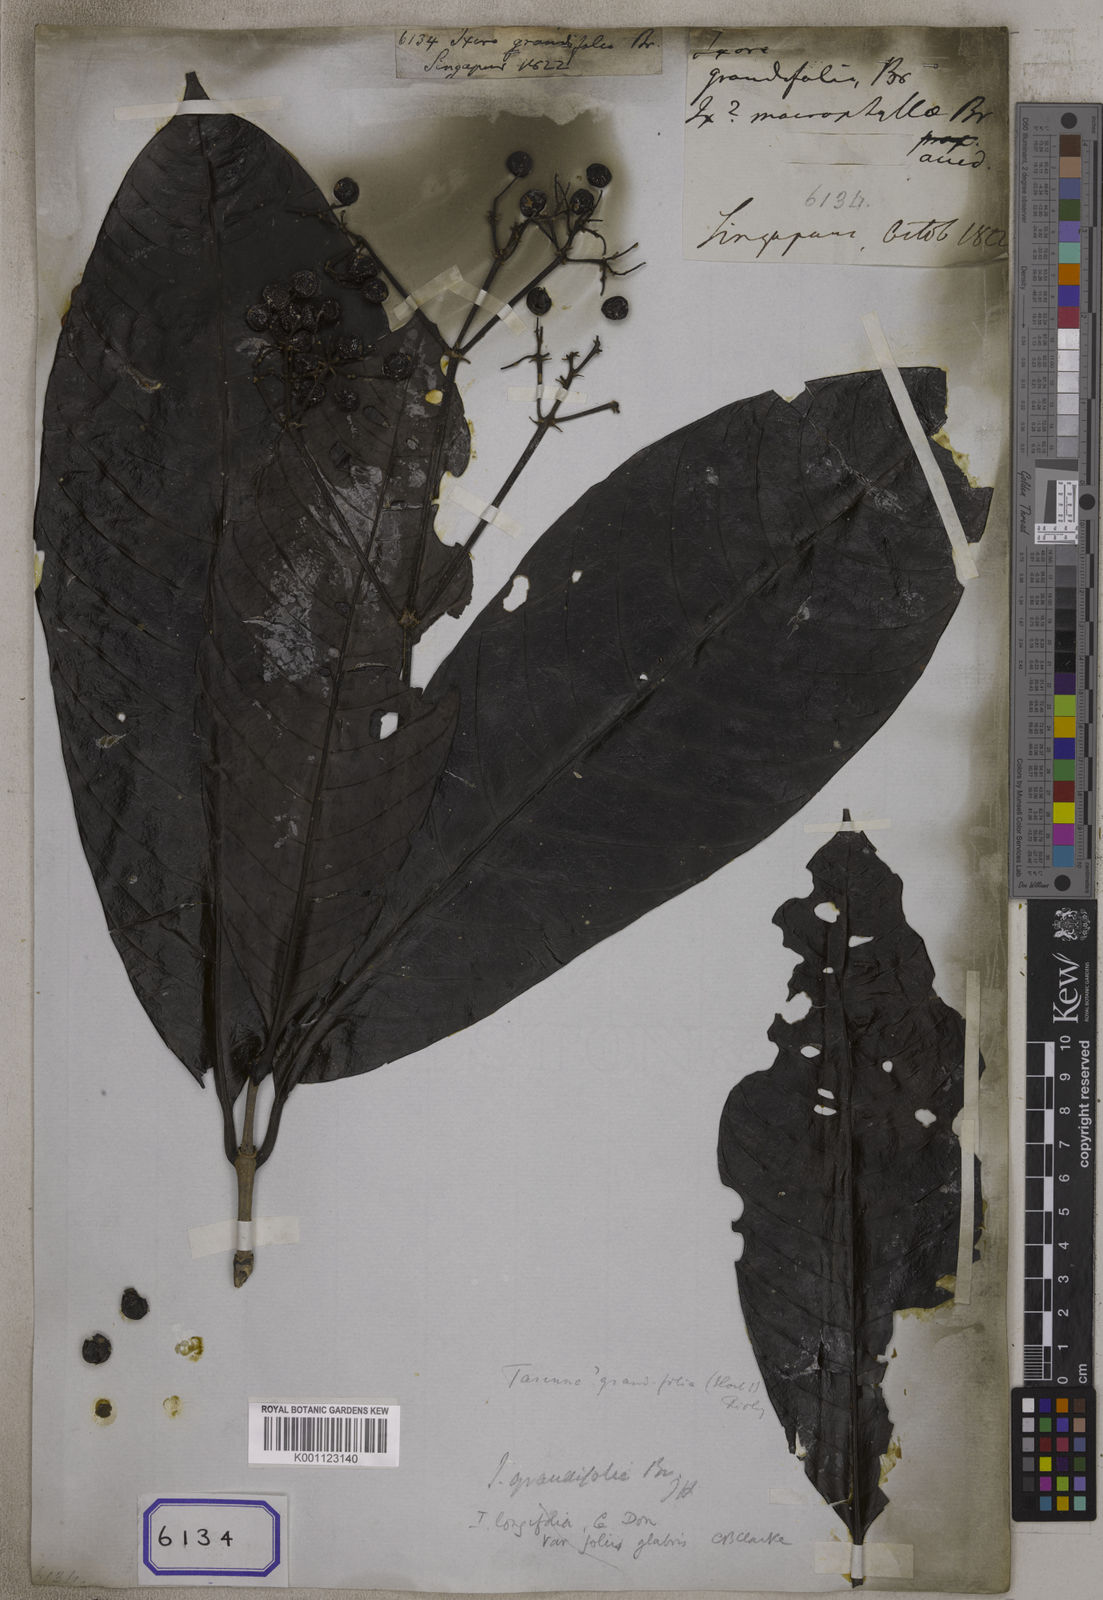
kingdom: Plantae
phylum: Tracheophyta
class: Magnoliopsida
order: Gentianales
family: Rubiaceae
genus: Ixora
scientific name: Ixora
